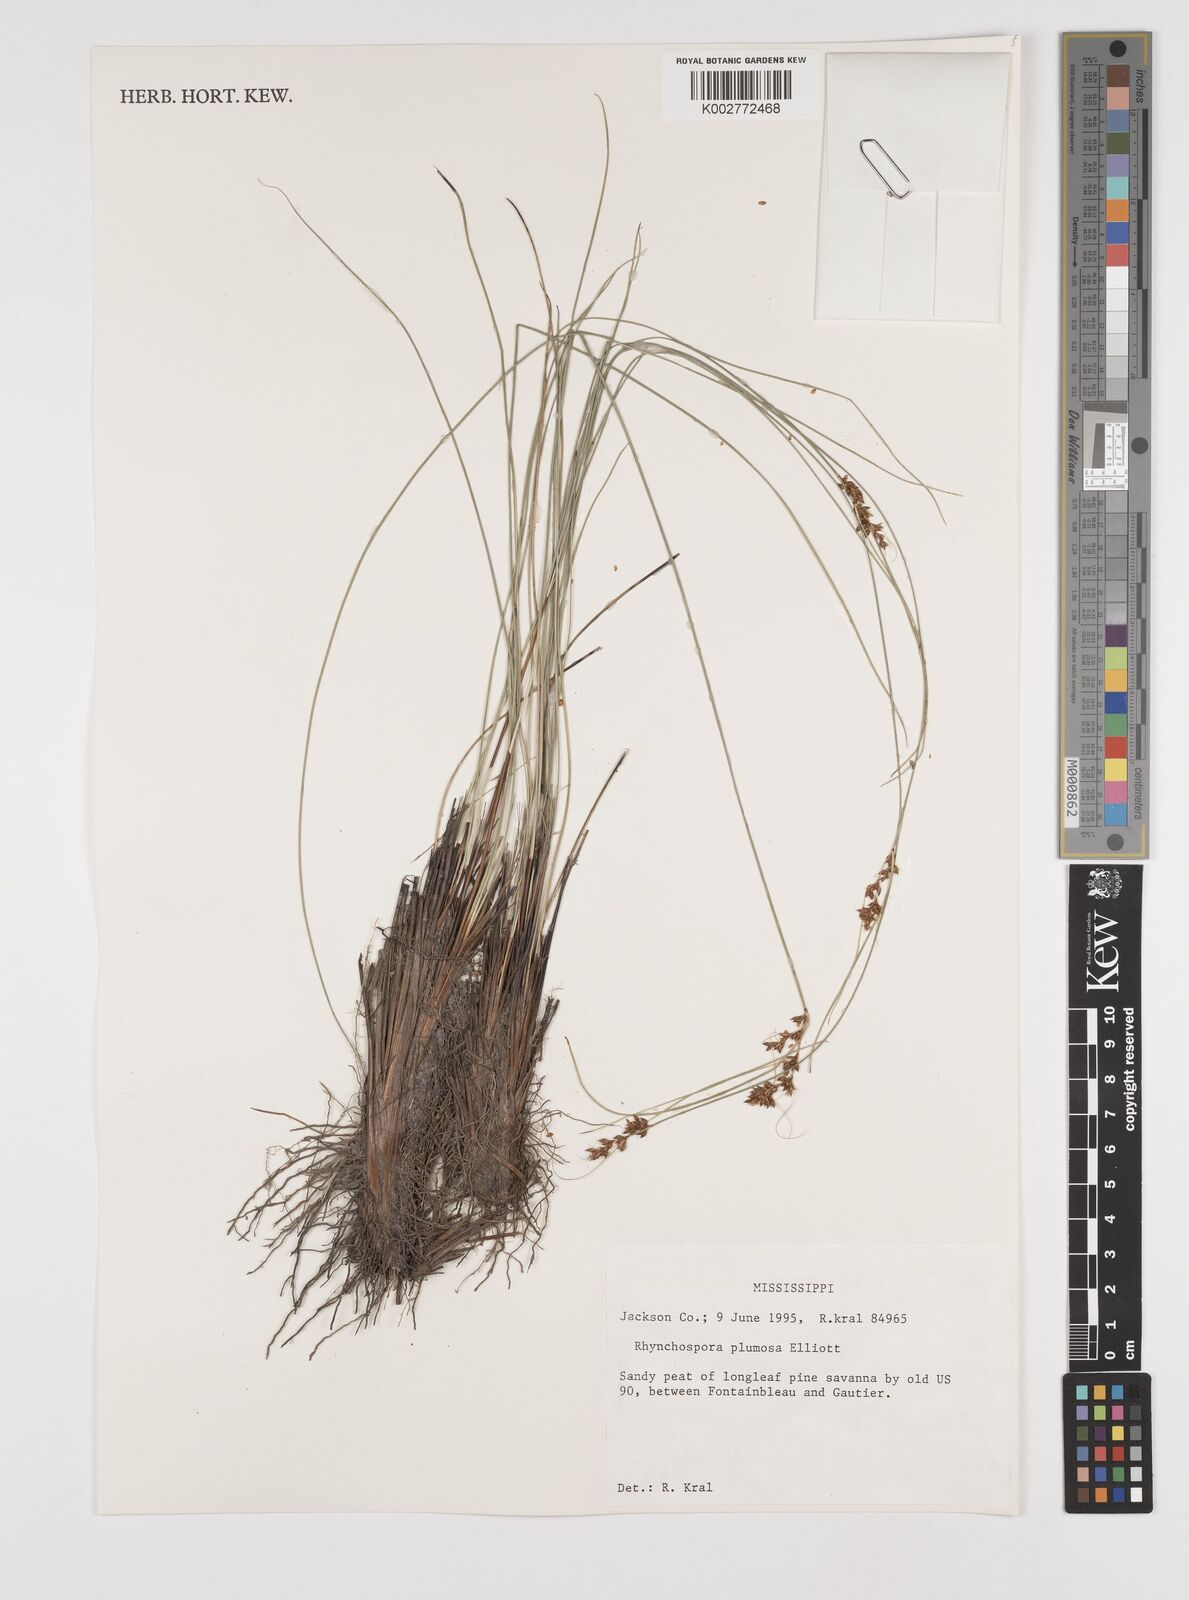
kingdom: Plantae
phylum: Tracheophyta
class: Liliopsida
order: Poales
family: Cyperaceae
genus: Rhynchospora
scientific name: Rhynchospora plumosa
